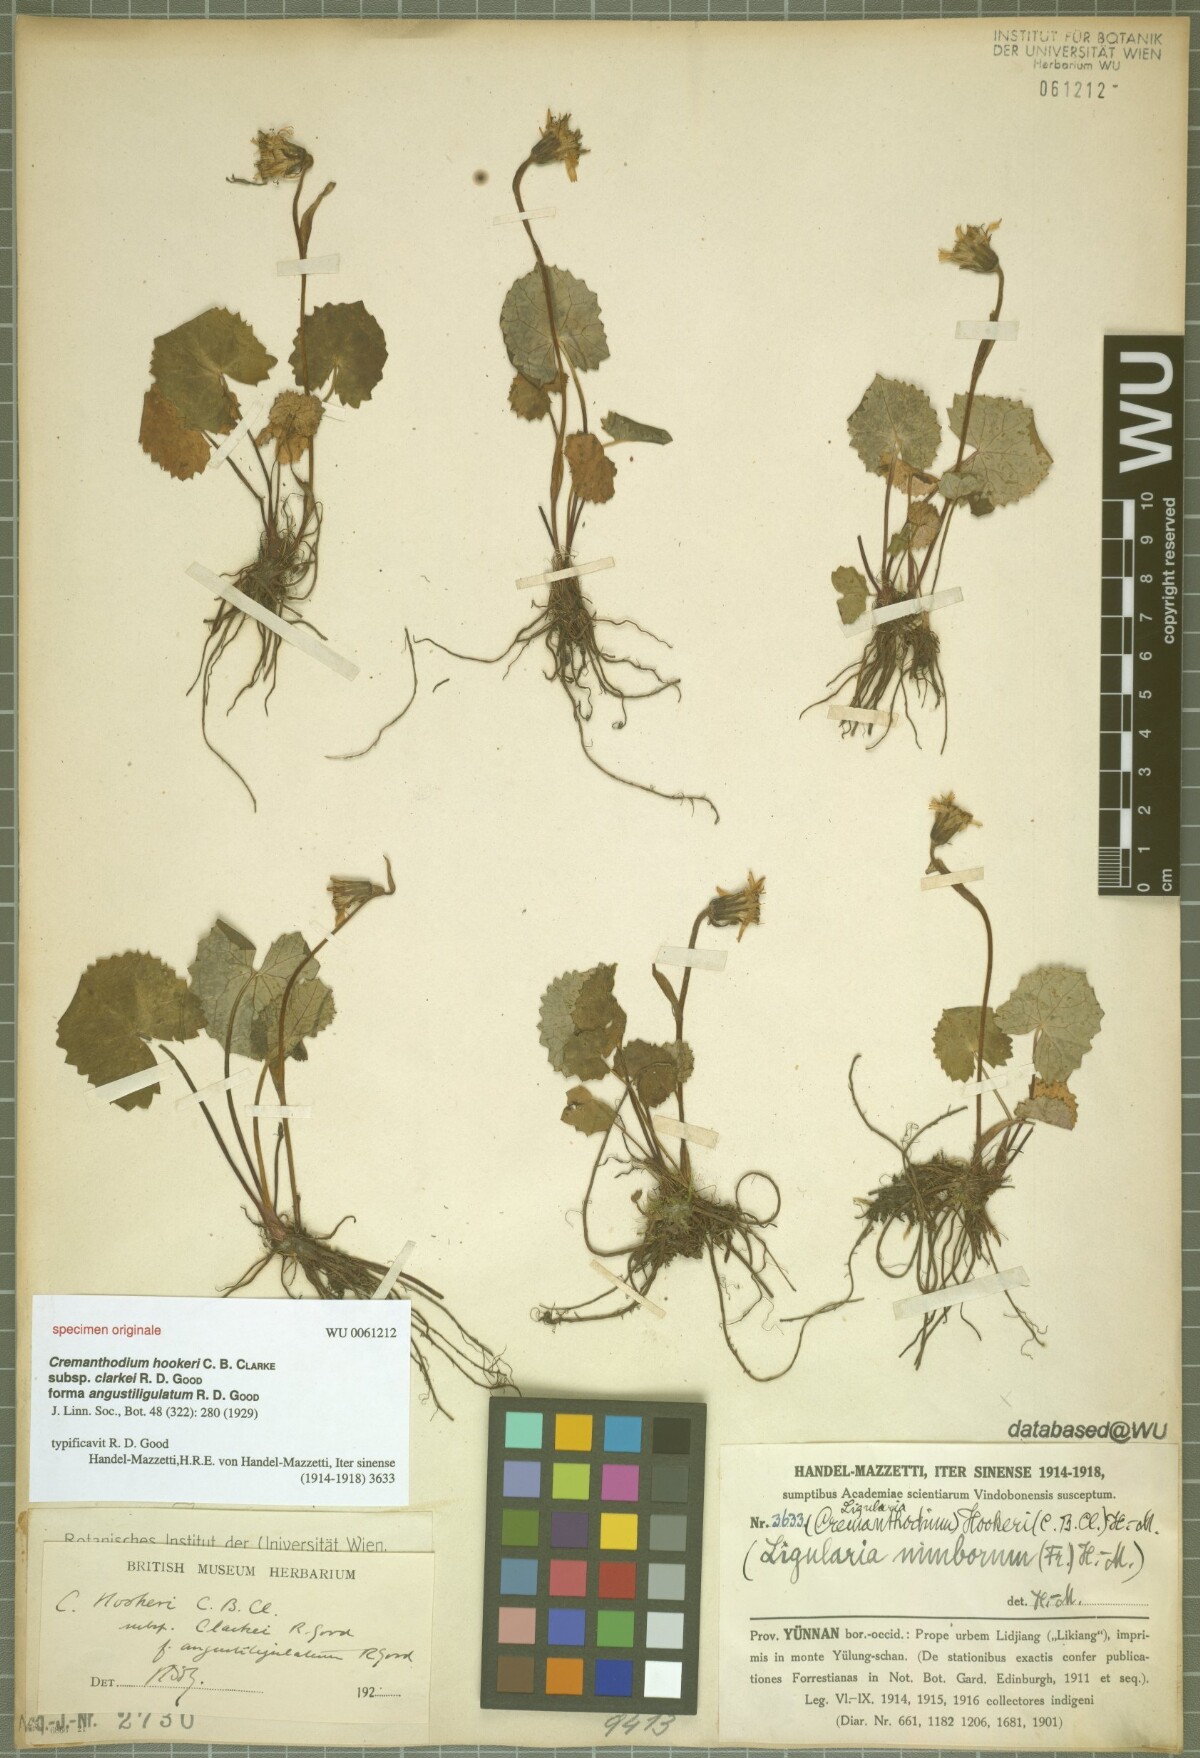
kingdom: Plantae
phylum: Tracheophyta
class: Magnoliopsida
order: Asterales
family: Asteraceae
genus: Ligularia
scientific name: Ligularia hookeri
